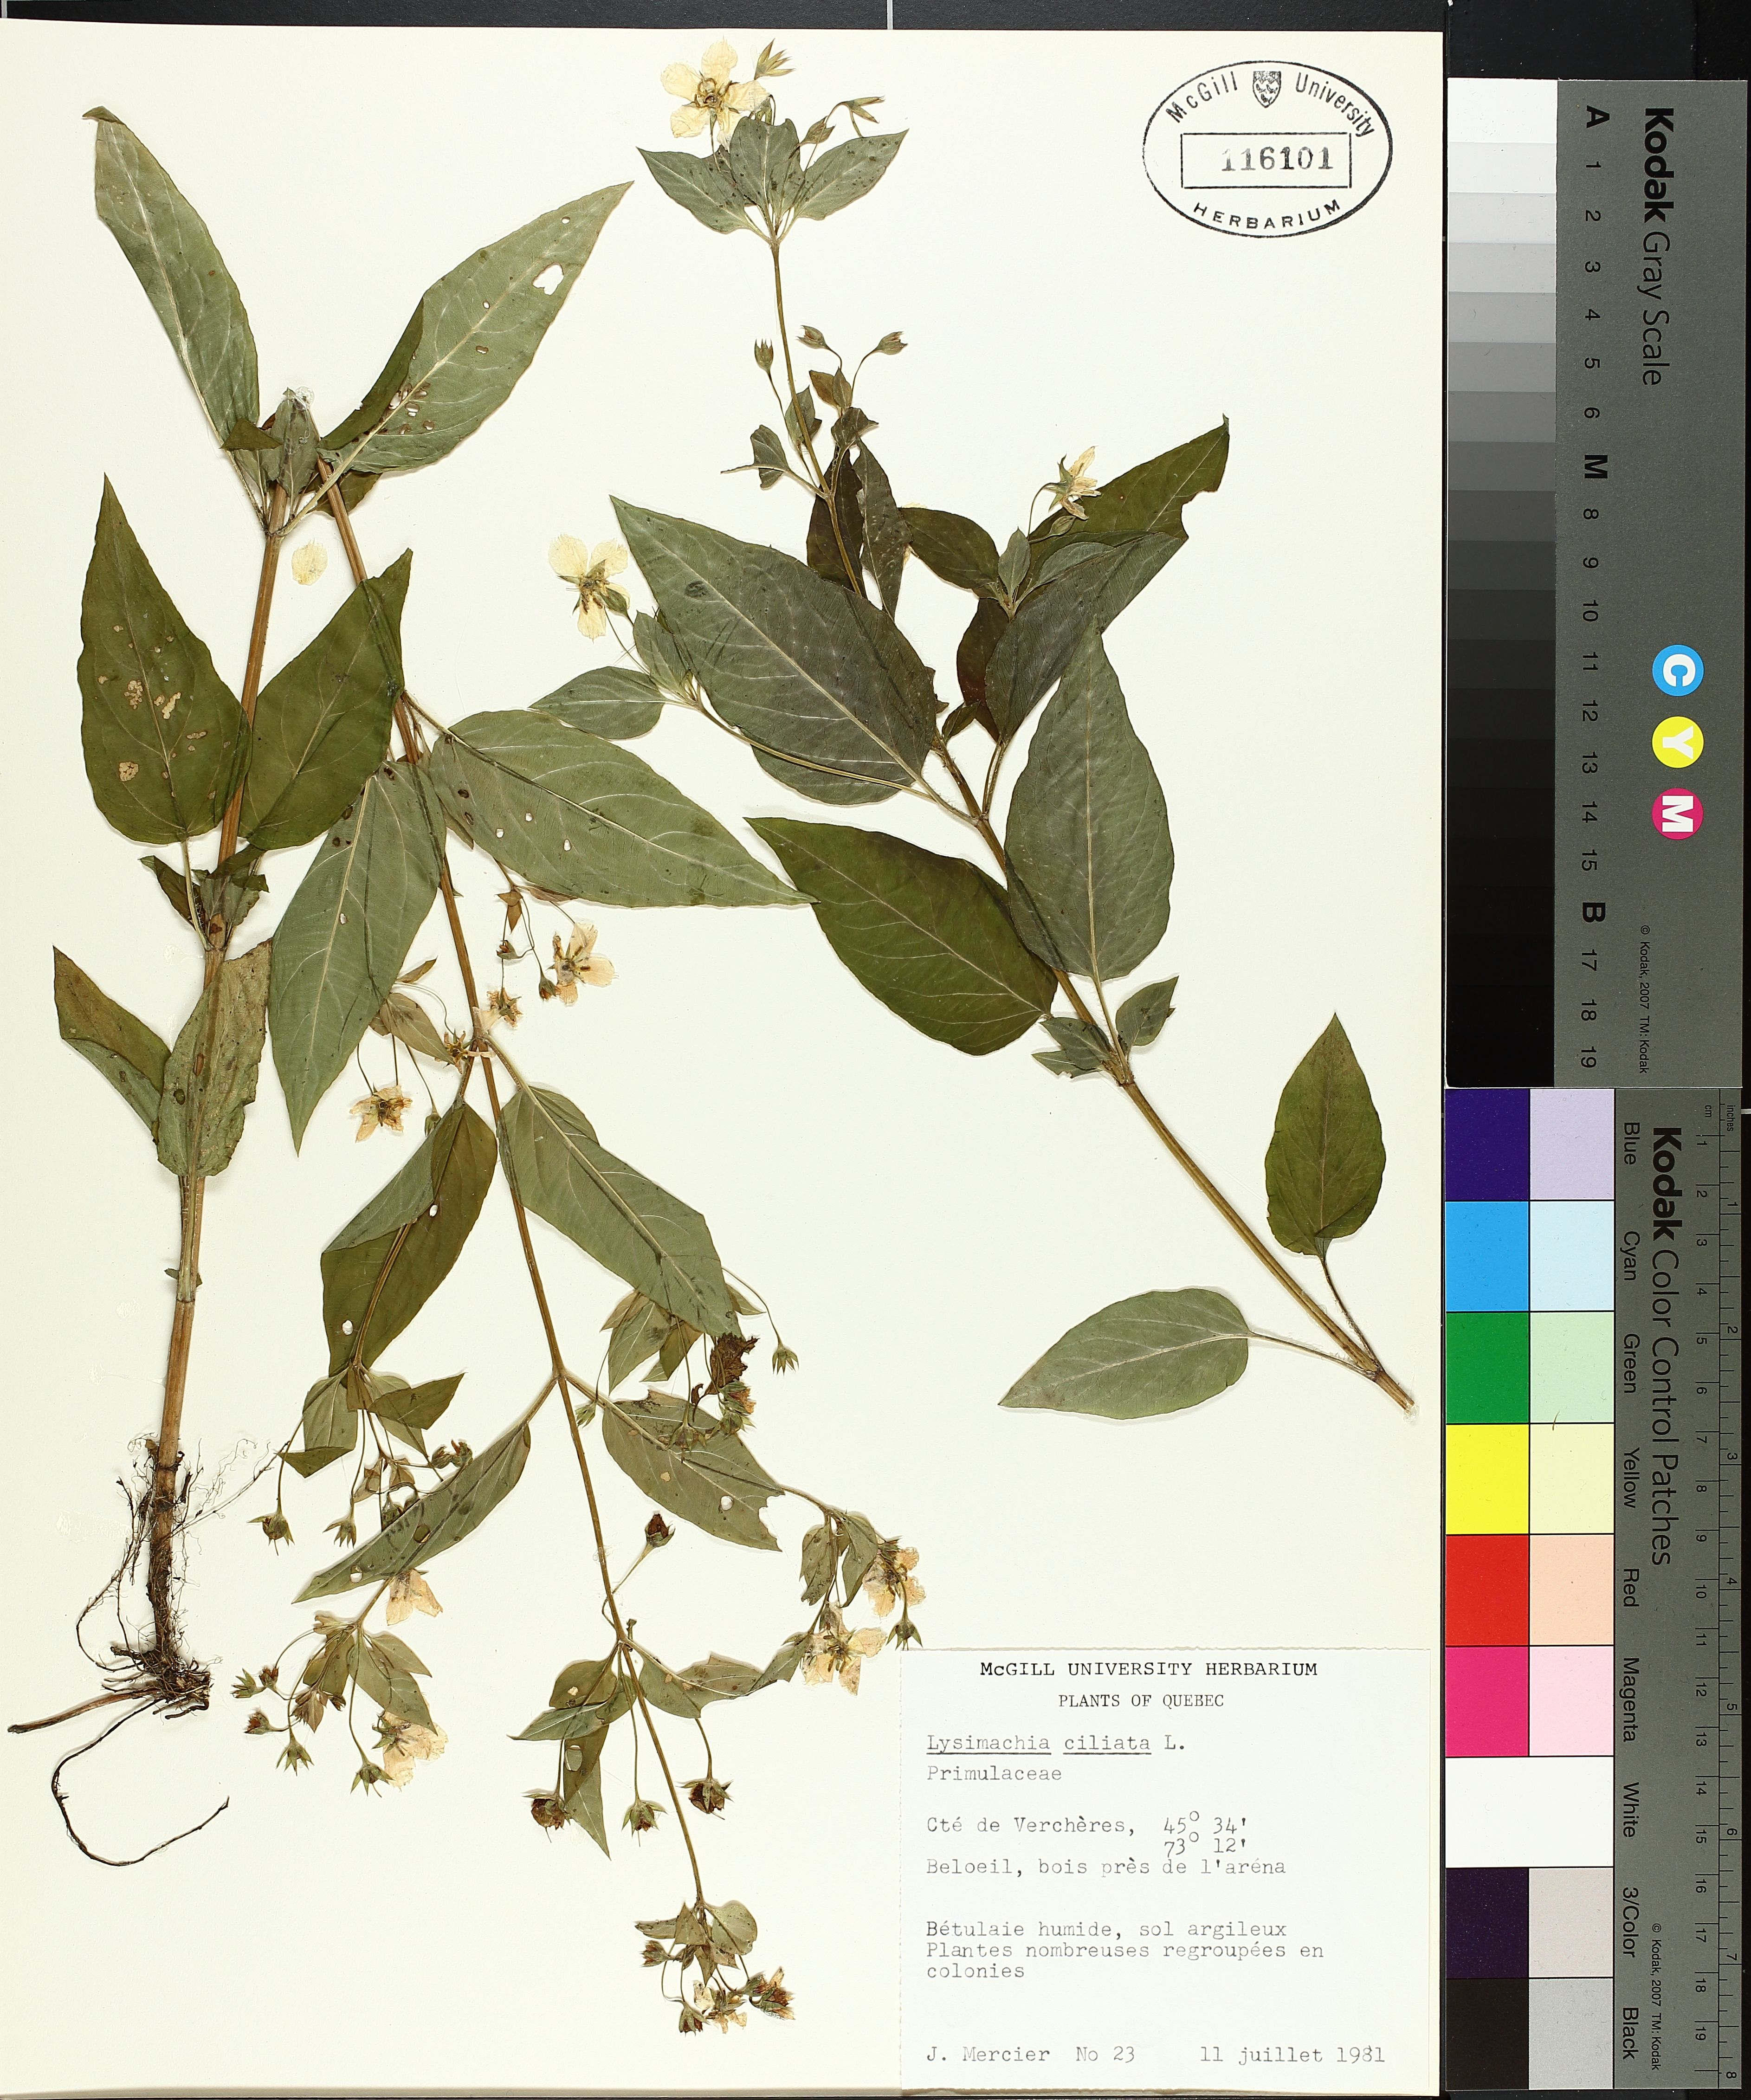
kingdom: Plantae
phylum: Tracheophyta
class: Liliopsida
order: Poales
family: Cyperaceae
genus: Carex
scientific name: Carex tribuloides
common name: Blunt broom sedge
